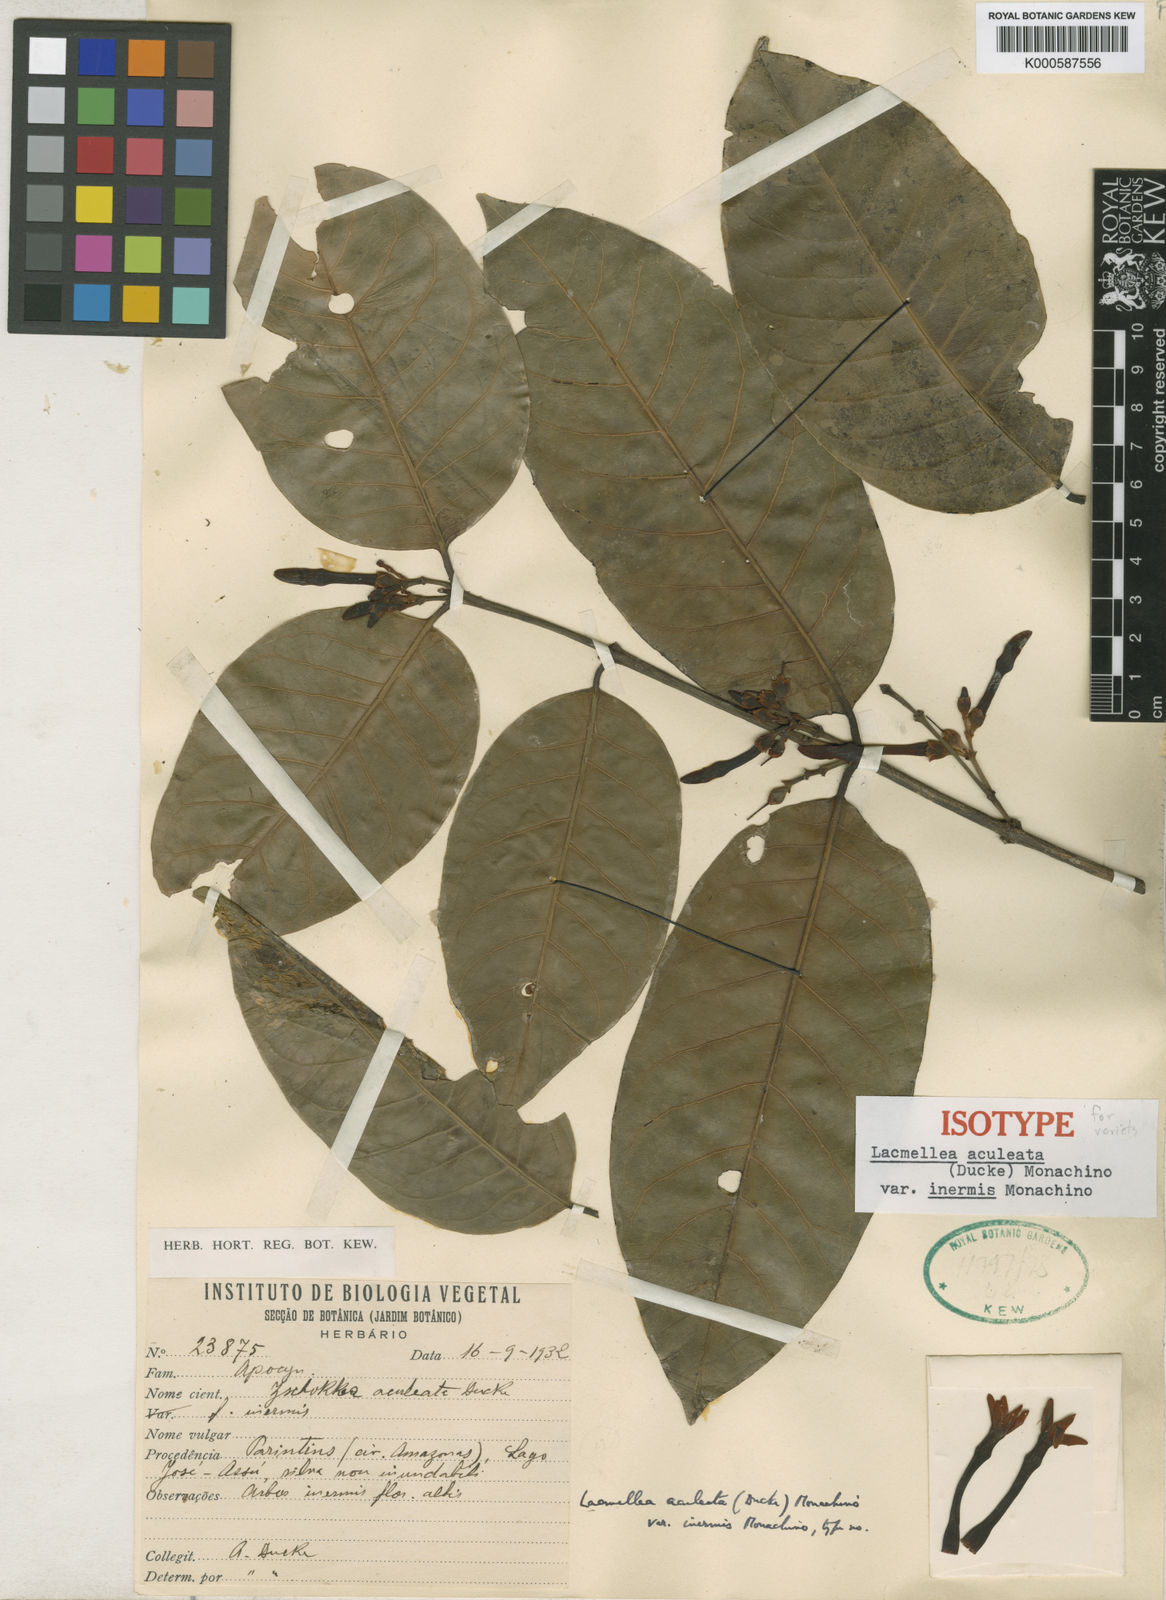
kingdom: Plantae
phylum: Tracheophyta
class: Magnoliopsida
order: Gentianales
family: Apocynaceae
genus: Lacmellea
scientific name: Lacmellea aculeata
